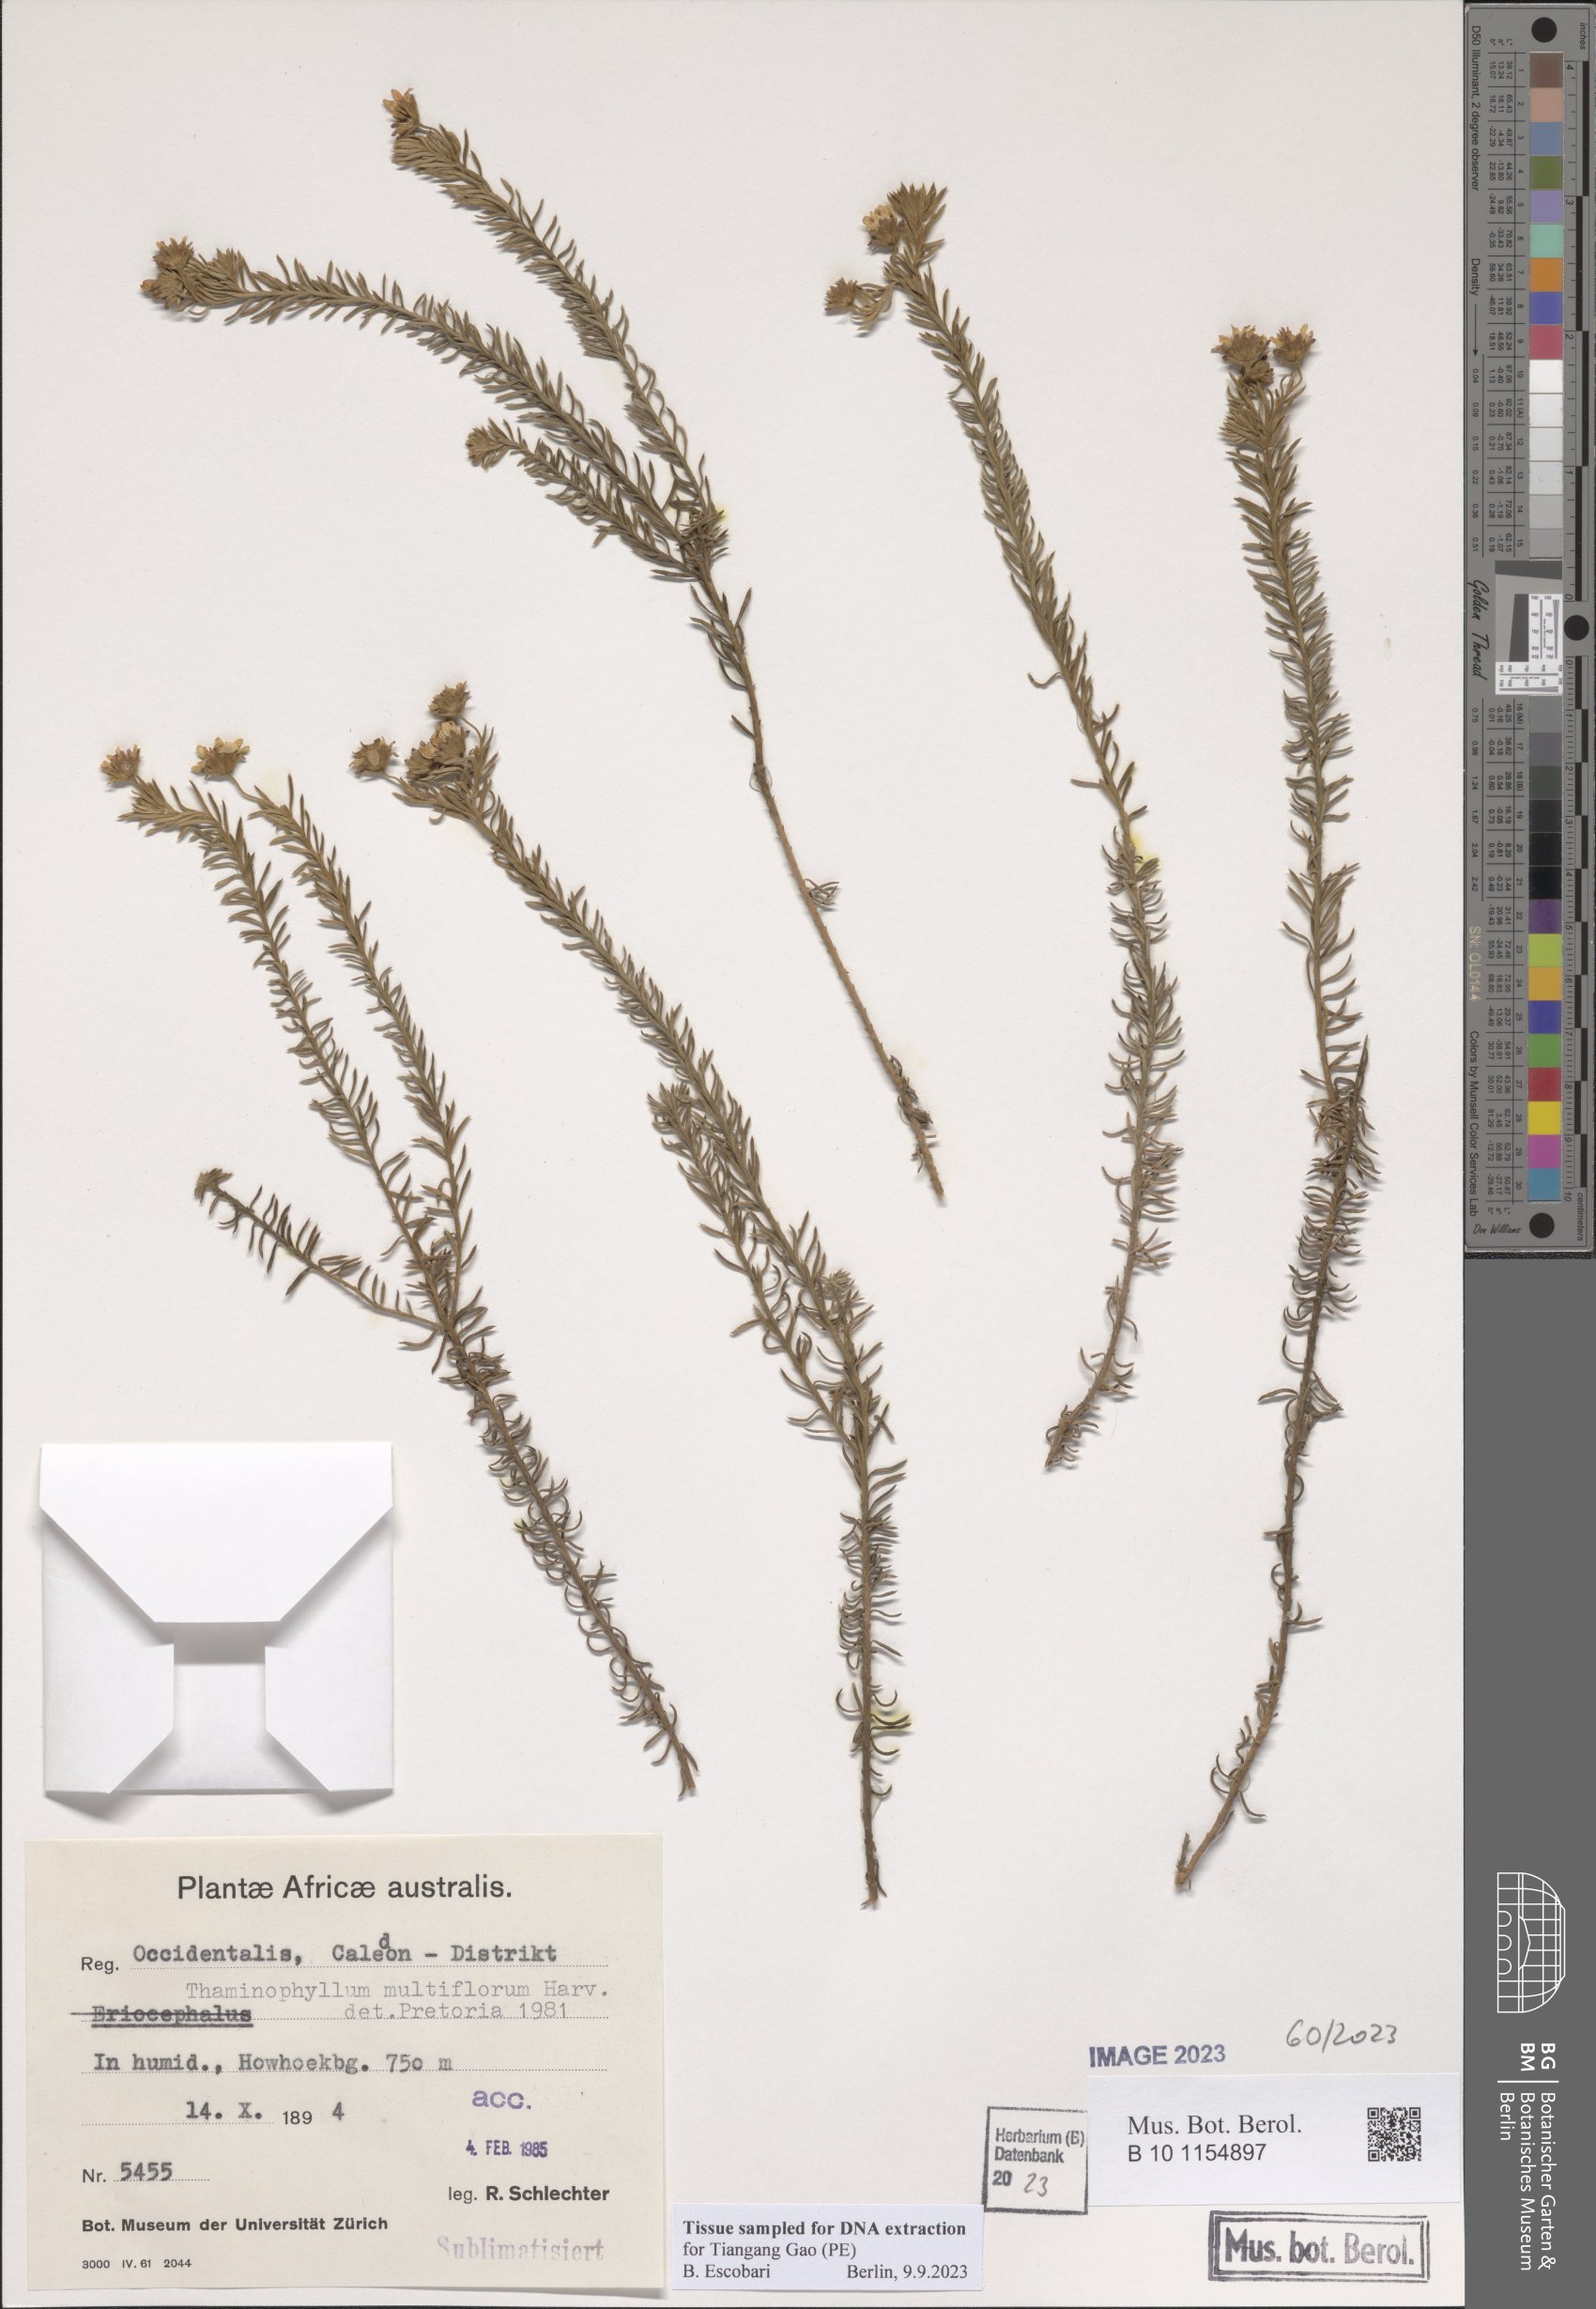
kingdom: Plantae
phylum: Tracheophyta
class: Magnoliopsida
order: Asterales
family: Asteraceae
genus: Thaminophyllum
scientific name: Thaminophyllum multiflorum
